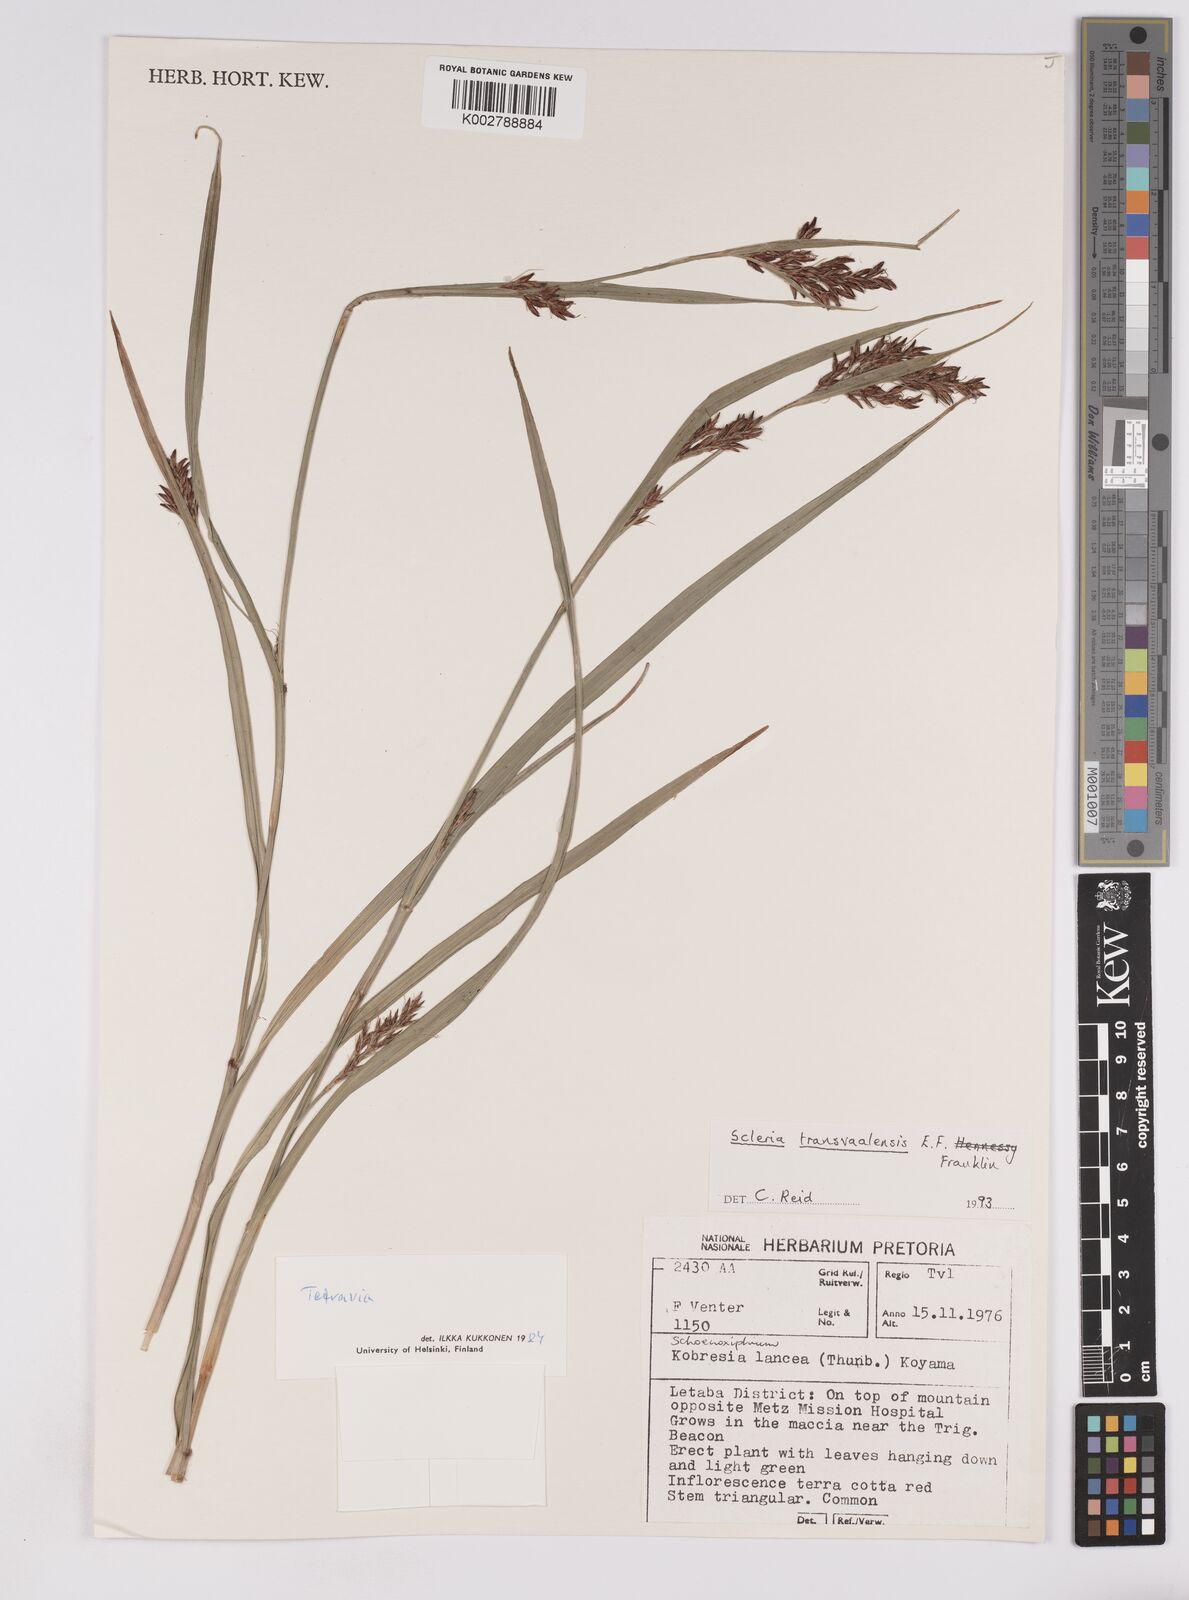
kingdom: Plantae
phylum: Tracheophyta
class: Liliopsida
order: Poales
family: Cyperaceae
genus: Scleria
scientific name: Scleria transvaalensis
